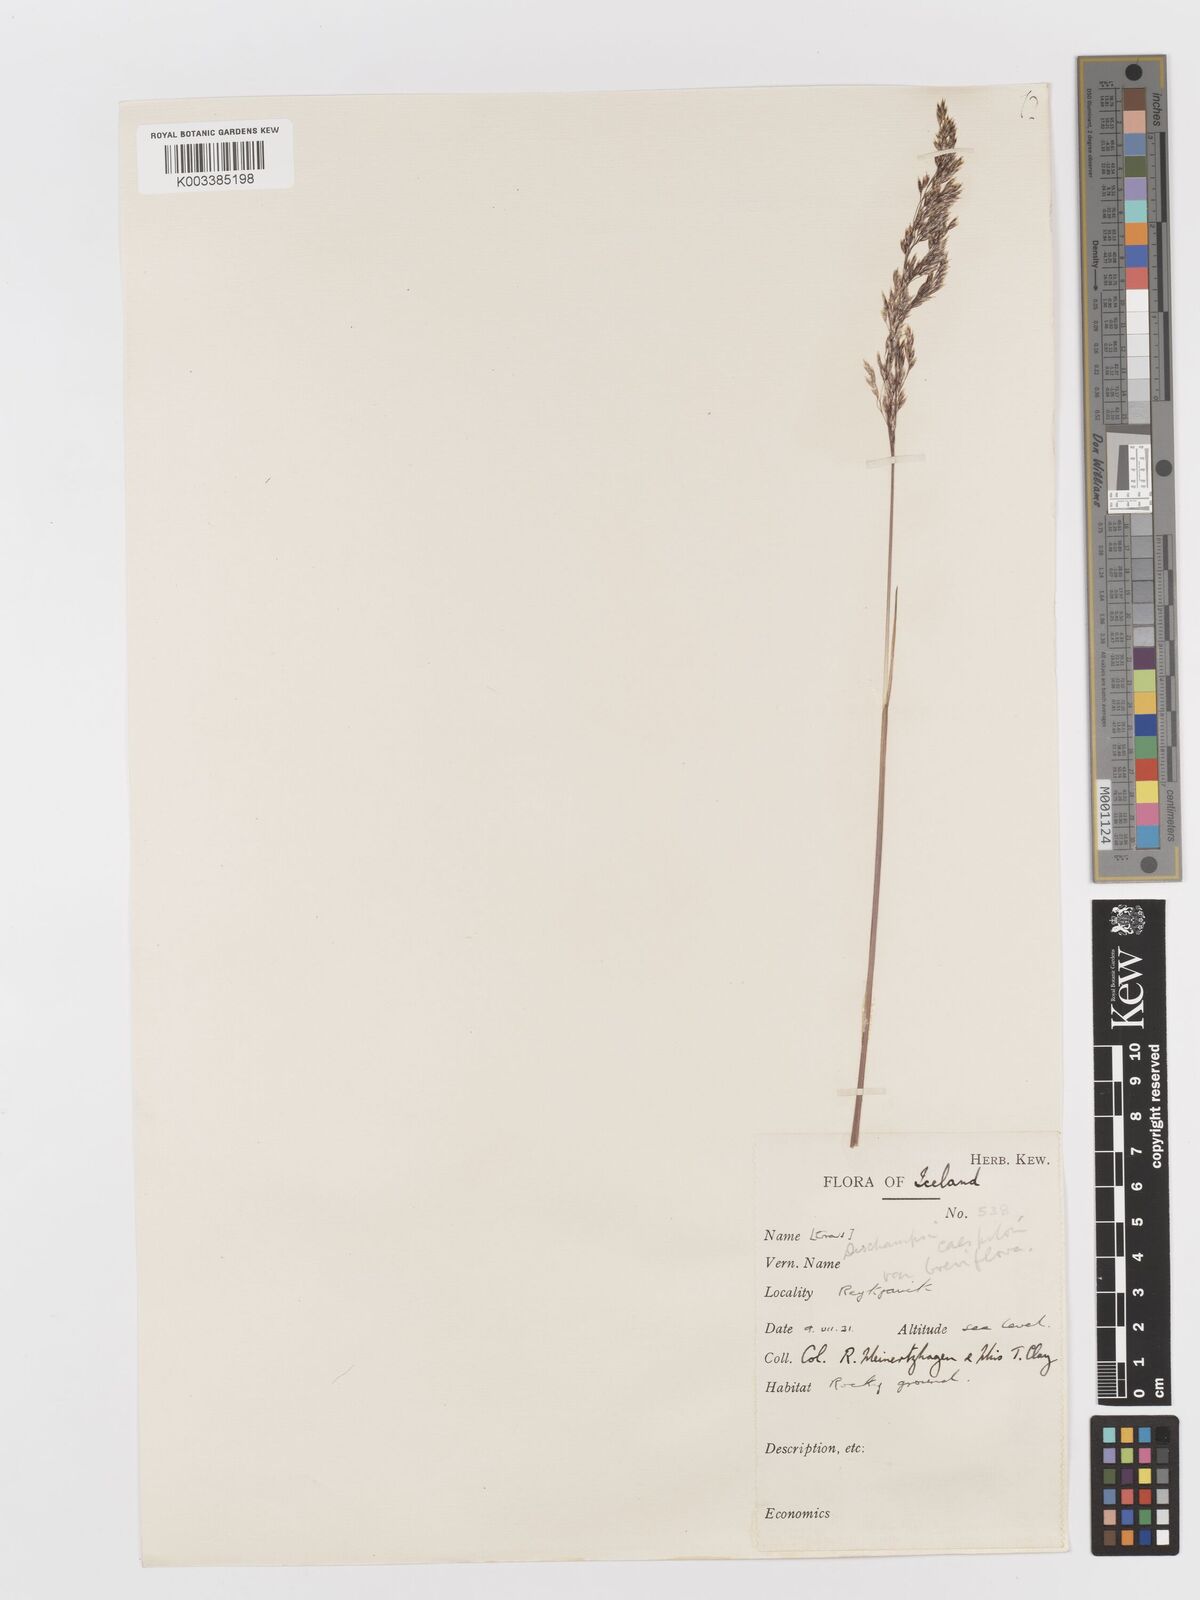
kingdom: Plantae
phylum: Tracheophyta
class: Liliopsida
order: Poales
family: Poaceae
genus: Deschampsia
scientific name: Deschampsia cespitosa
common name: Tufted hair-grass
